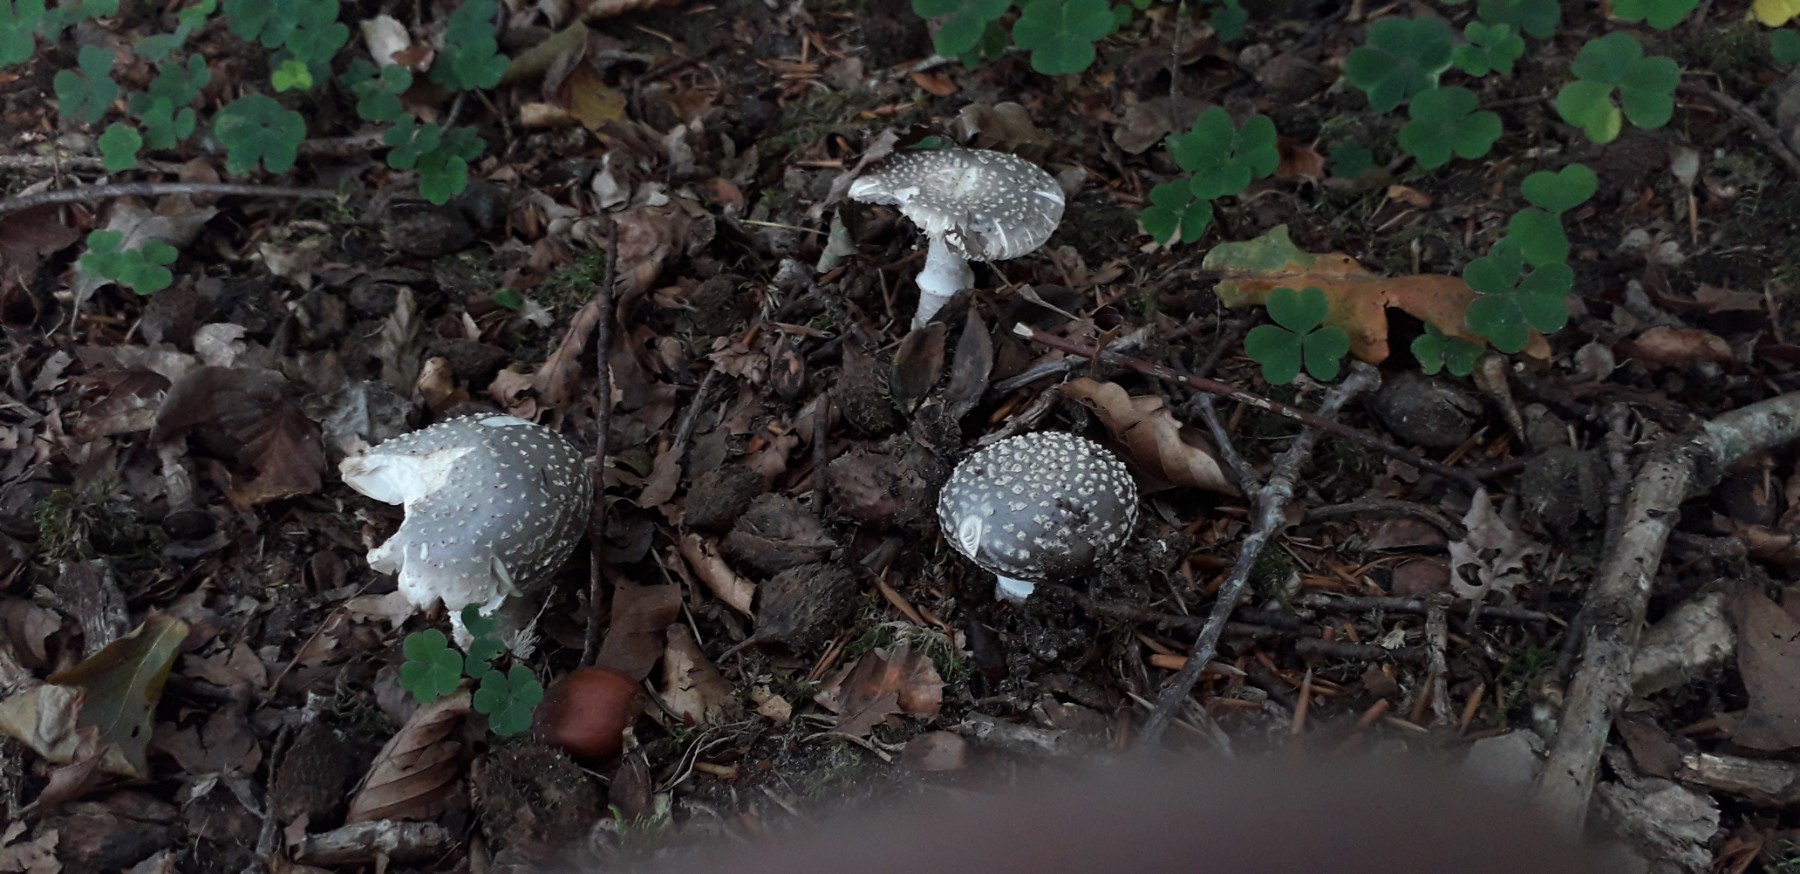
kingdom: Fungi
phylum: Basidiomycota
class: Agaricomycetes
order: Agaricales
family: Amanitaceae
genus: Amanita
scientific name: Amanita pantherina
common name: panter-fluesvamp
